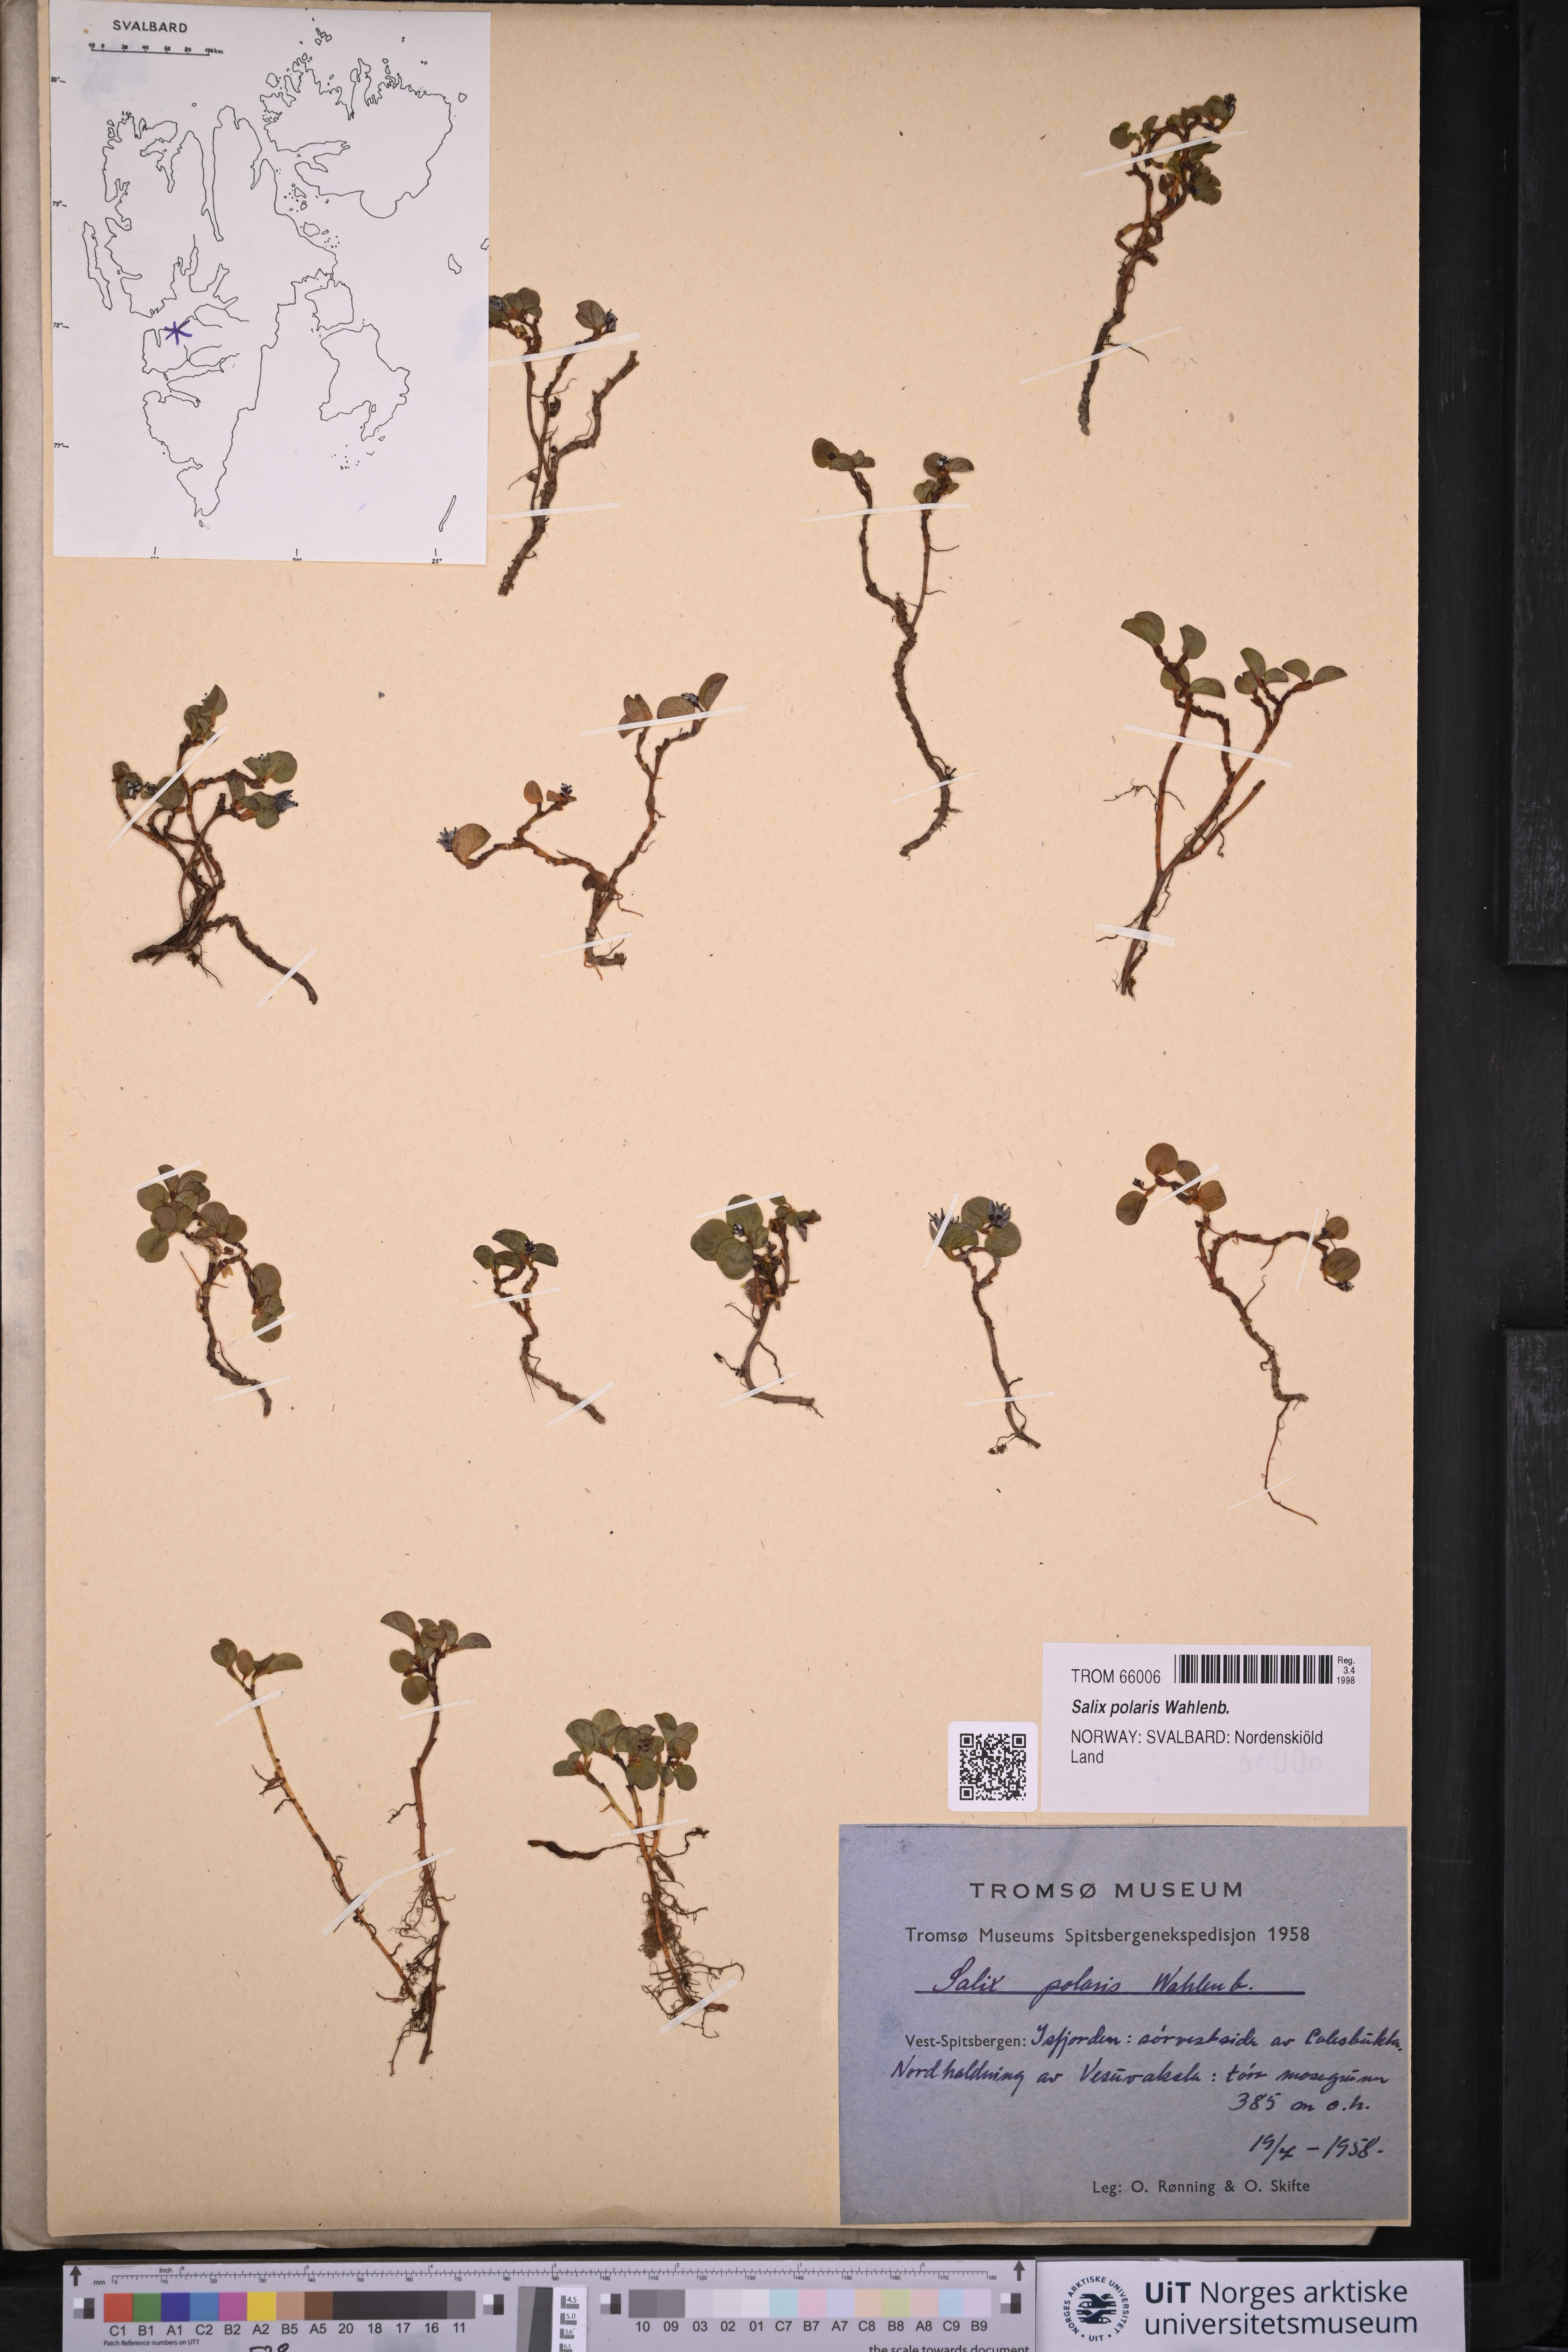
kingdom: Plantae
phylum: Tracheophyta
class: Magnoliopsida
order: Malpighiales
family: Salicaceae
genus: Salix
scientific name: Salix polaris
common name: Polar willow
